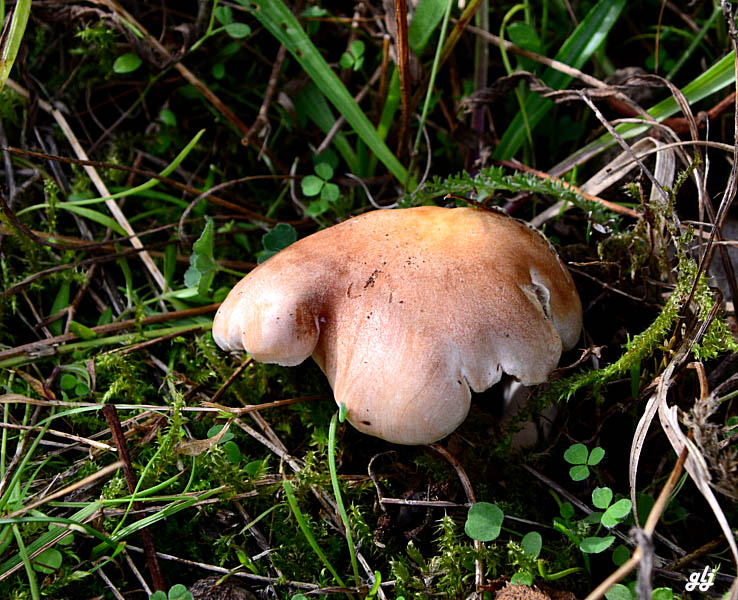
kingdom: Fungi
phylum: Basidiomycota
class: Agaricomycetes
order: Agaricales
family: Hymenogastraceae
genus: Hebeloma
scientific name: Hebeloma
